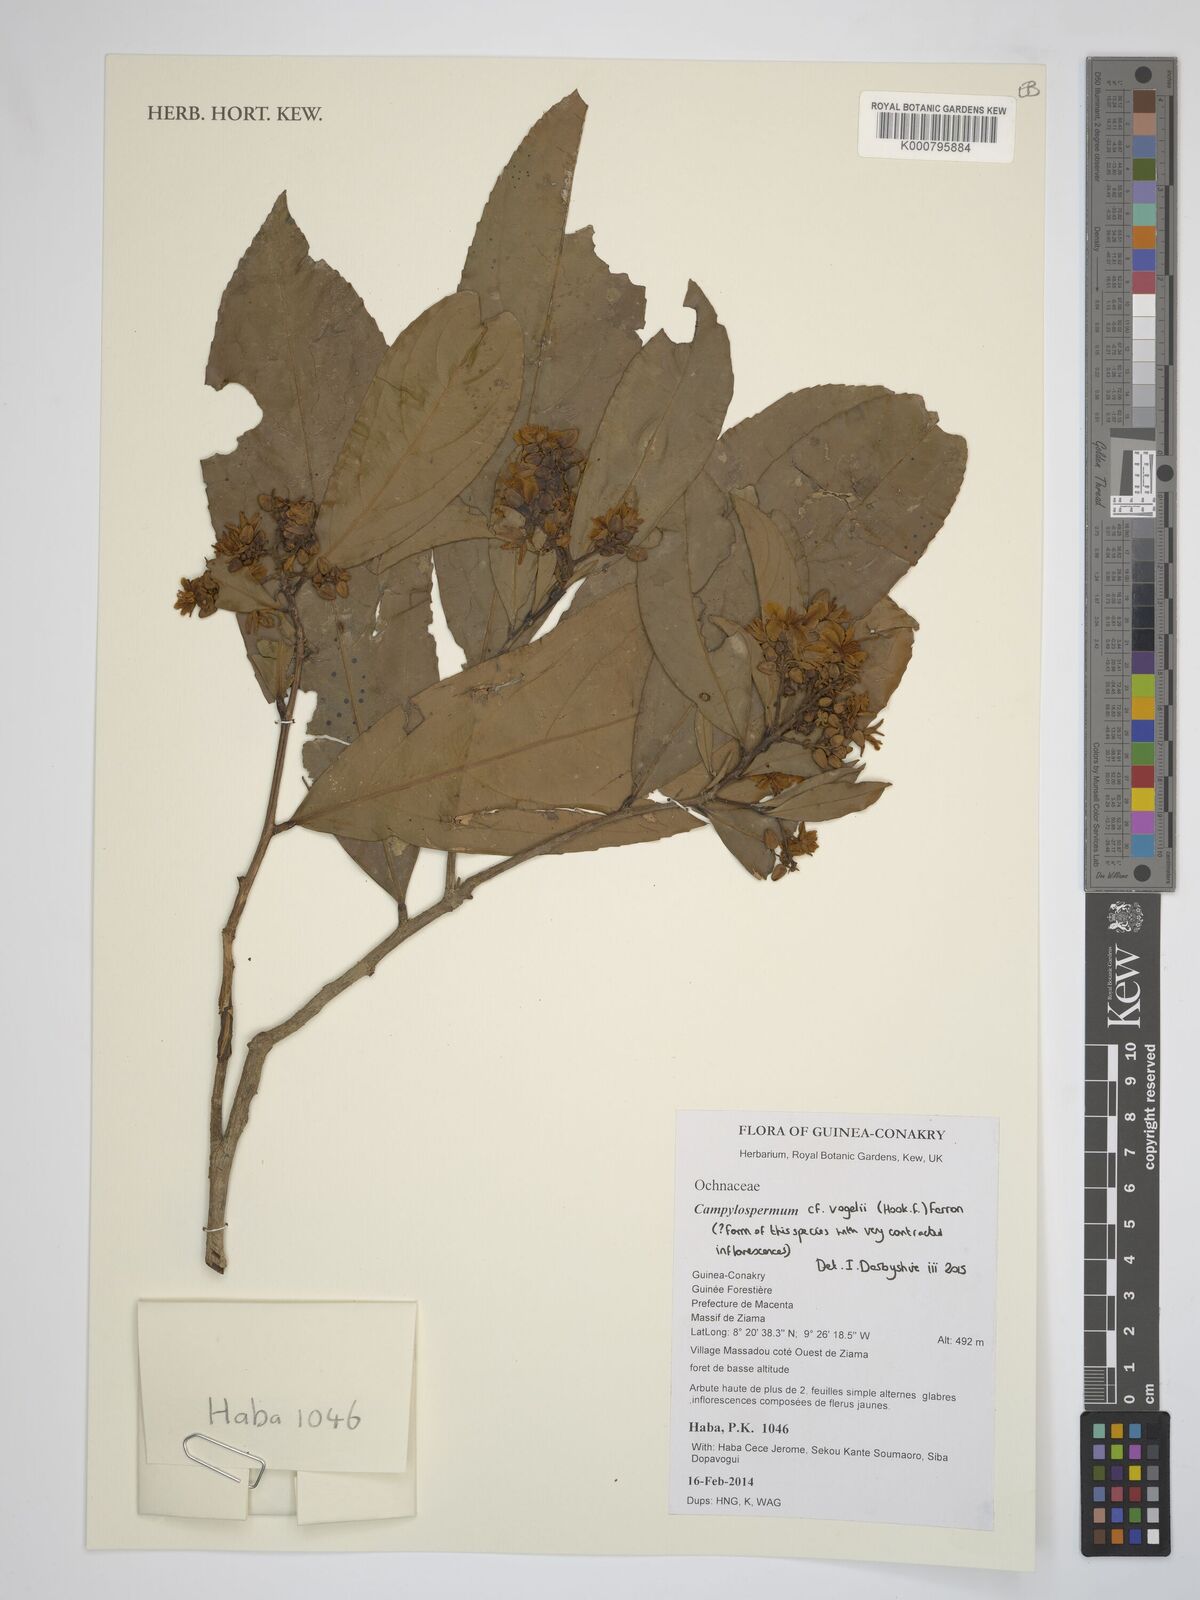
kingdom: Plantae
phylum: Tracheophyta
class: Magnoliopsida
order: Malpighiales
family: Ochnaceae
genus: Campylospermum
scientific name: Campylospermum vogelii
